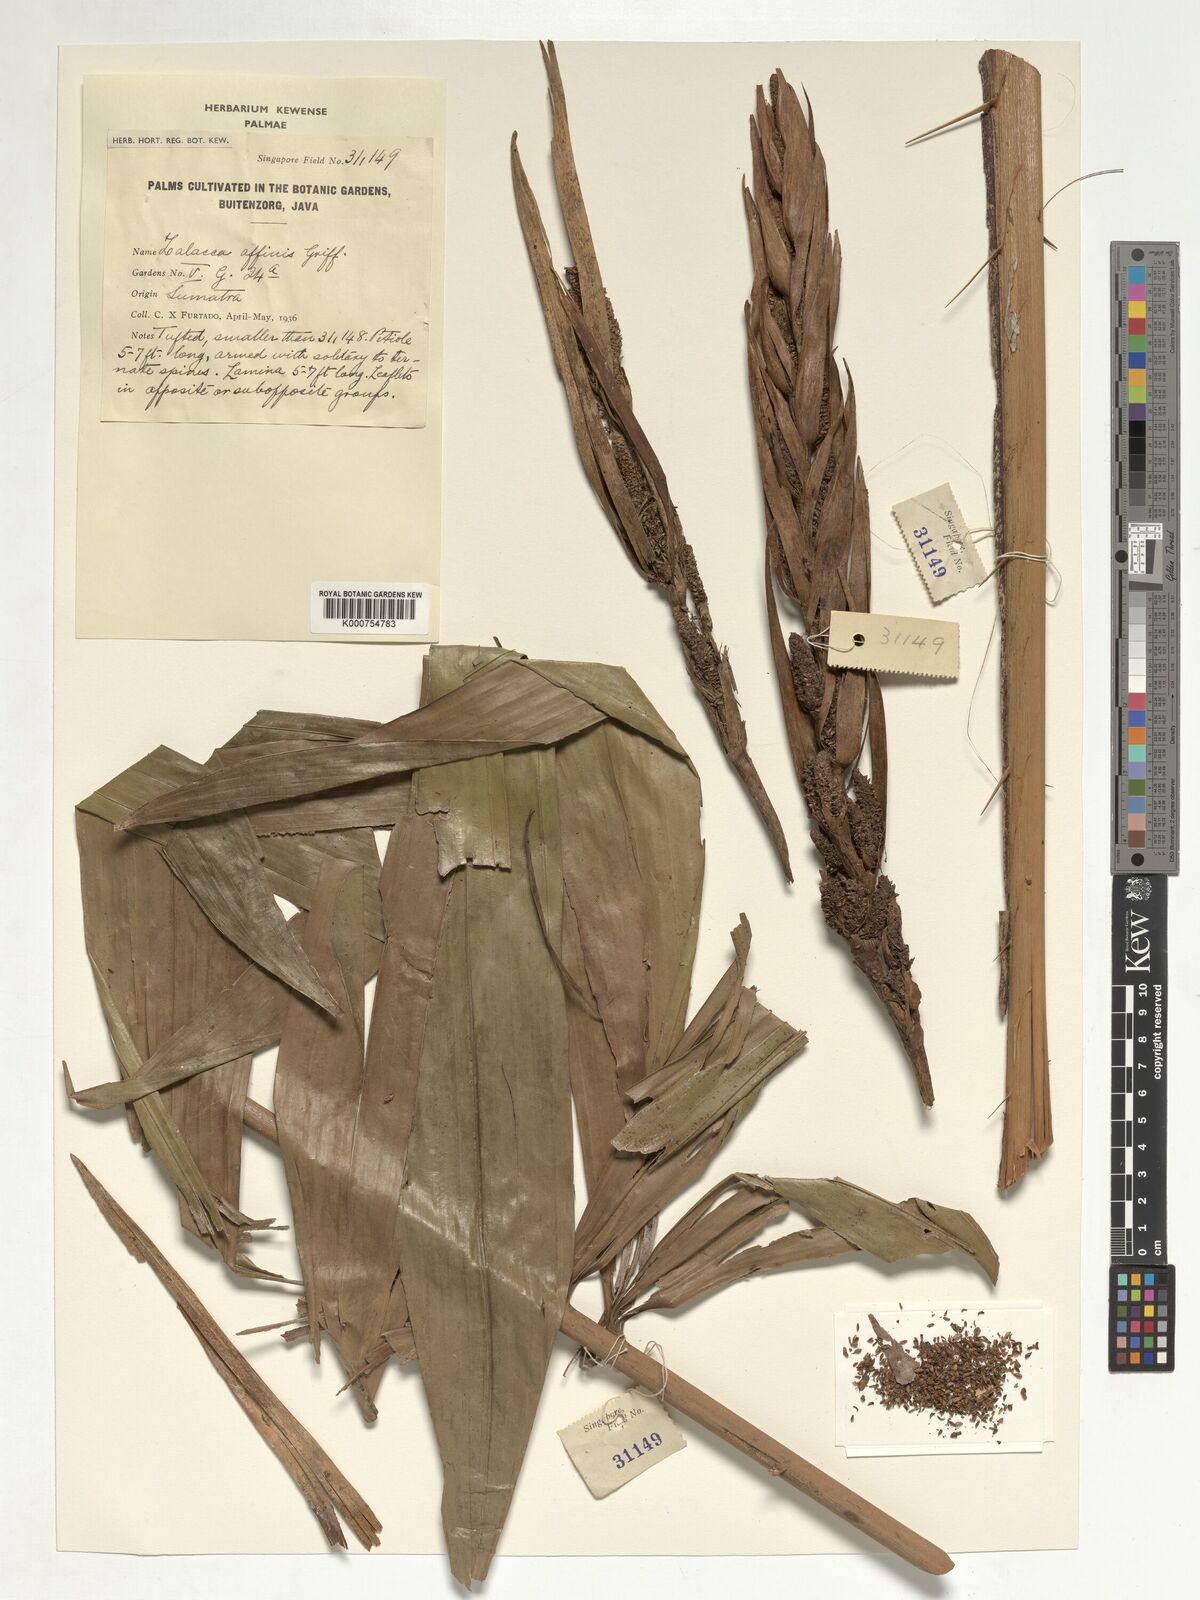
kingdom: Plantae
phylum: Tracheophyta
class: Liliopsida
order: Arecales
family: Arecaceae
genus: Salacca
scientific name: Salacca affinis
